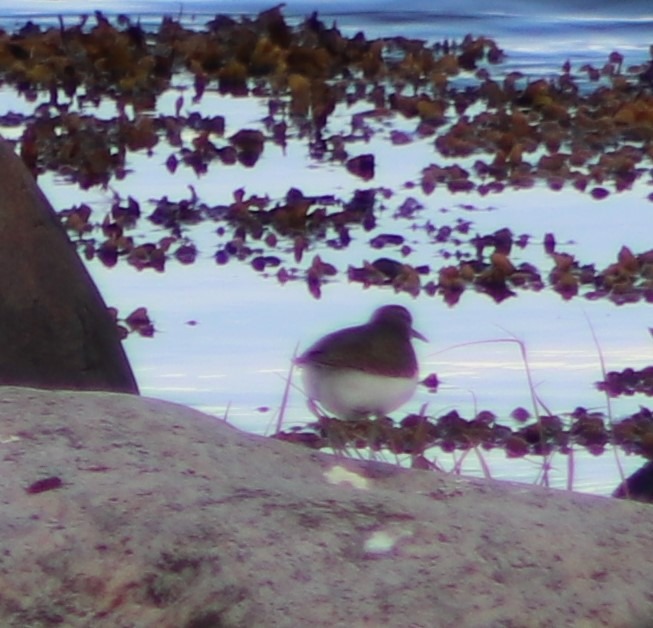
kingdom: Animalia
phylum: Chordata
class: Aves
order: Charadriiformes
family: Scolopacidae
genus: Actitis
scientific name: Actitis hypoleucos
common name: Mudderklire
